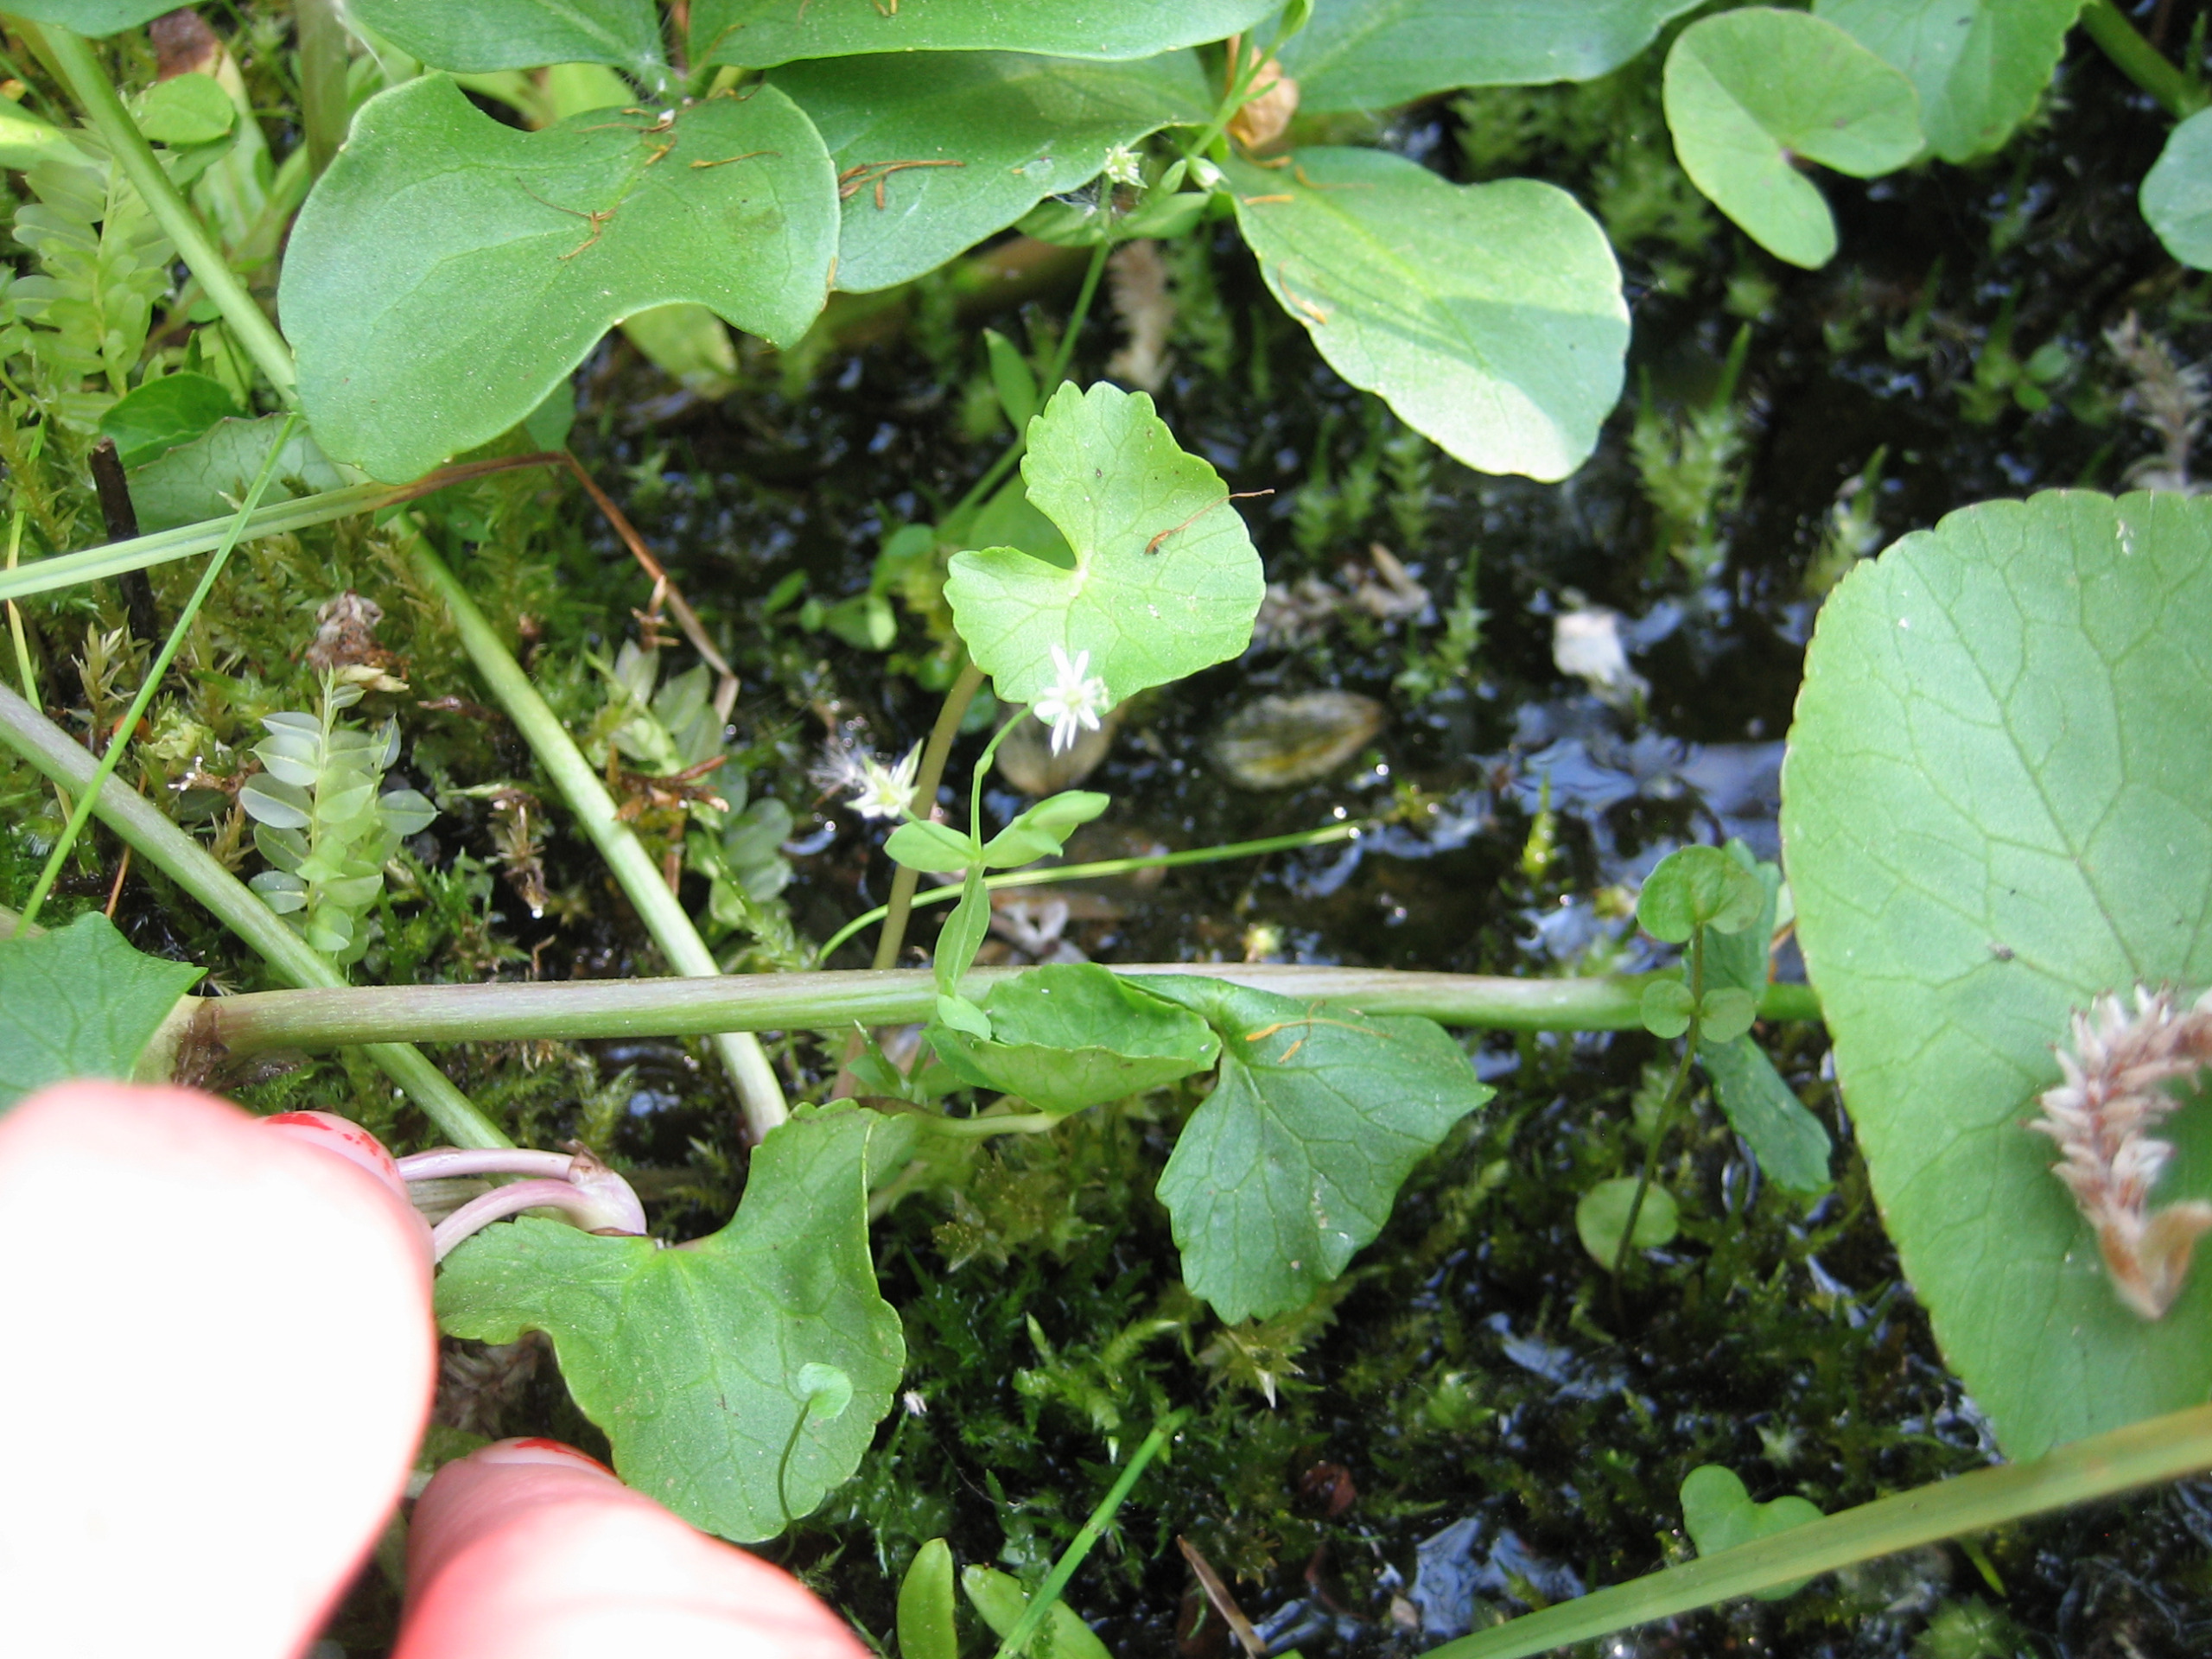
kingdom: Plantae
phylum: Tracheophyta
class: Magnoliopsida
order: Caryophyllales
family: Caryophyllaceae
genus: Stellaria
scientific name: Stellaria alsine
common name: Sump-fladstjerne
